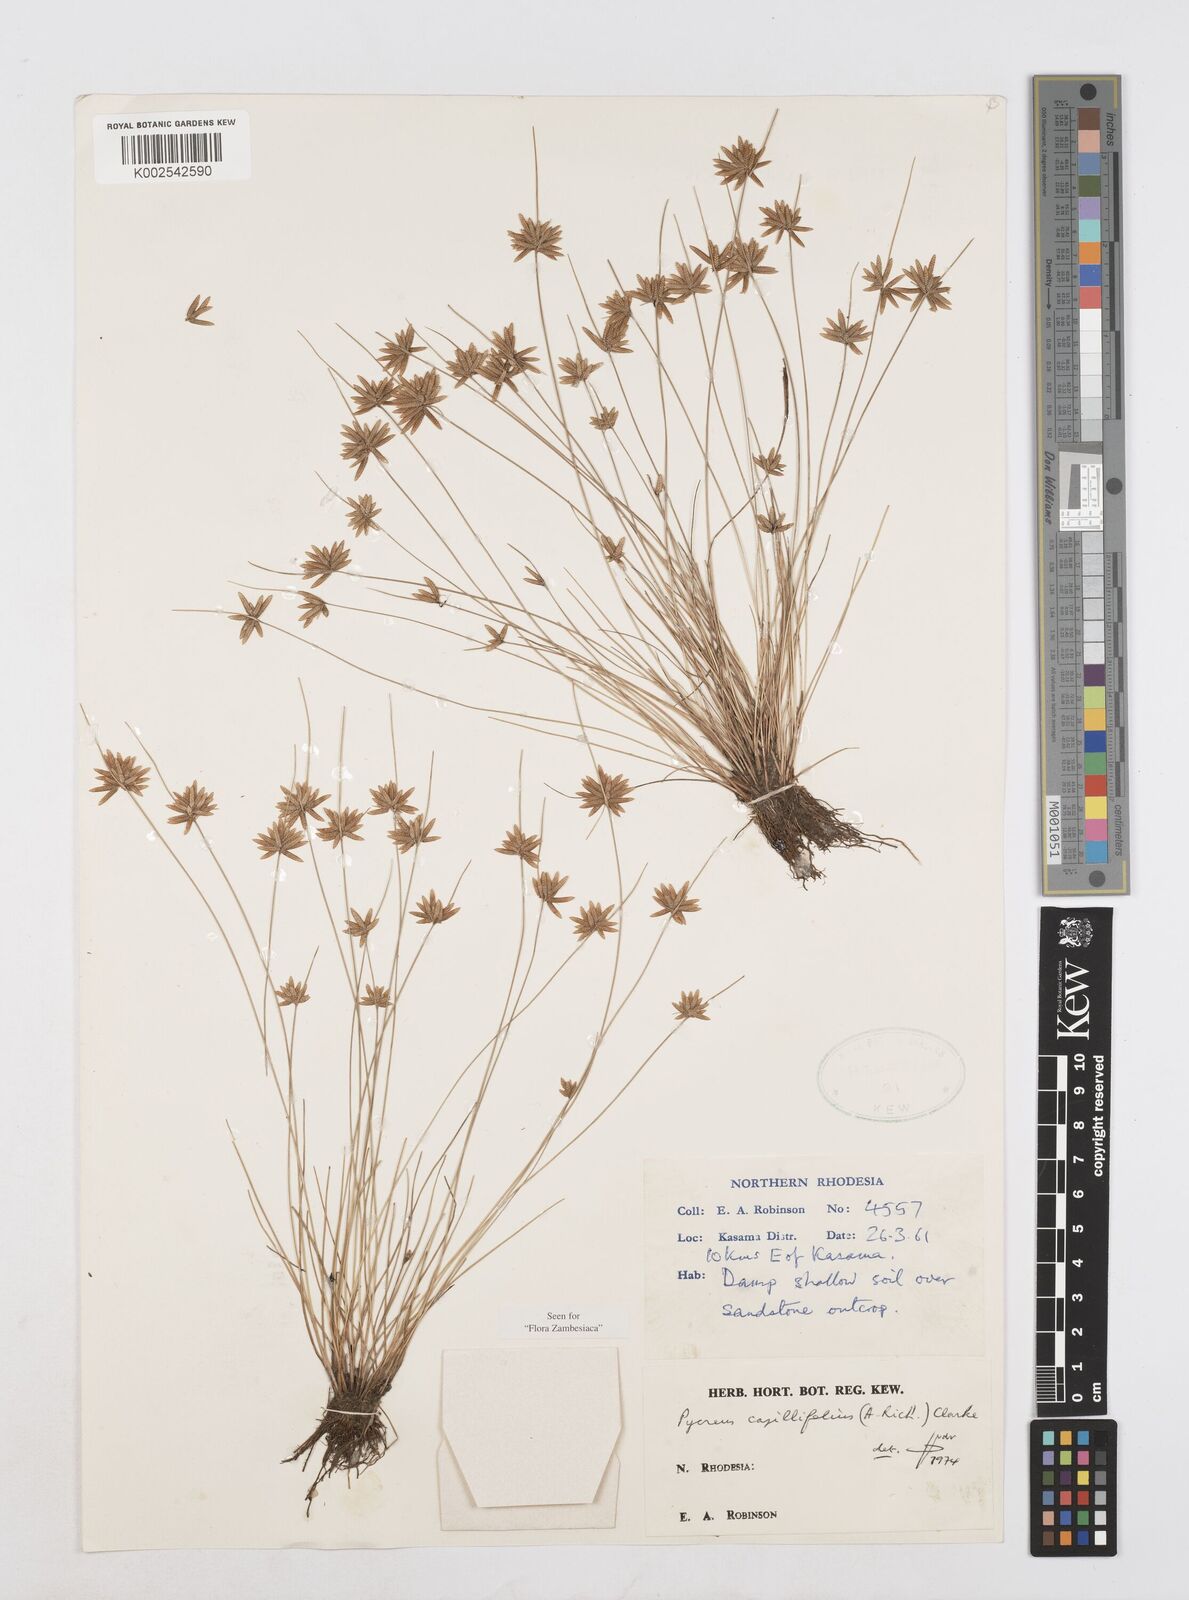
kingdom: Plantae
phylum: Tracheophyta
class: Liliopsida
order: Poales
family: Cyperaceae
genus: Cyperus
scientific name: Cyperus capillifolius
